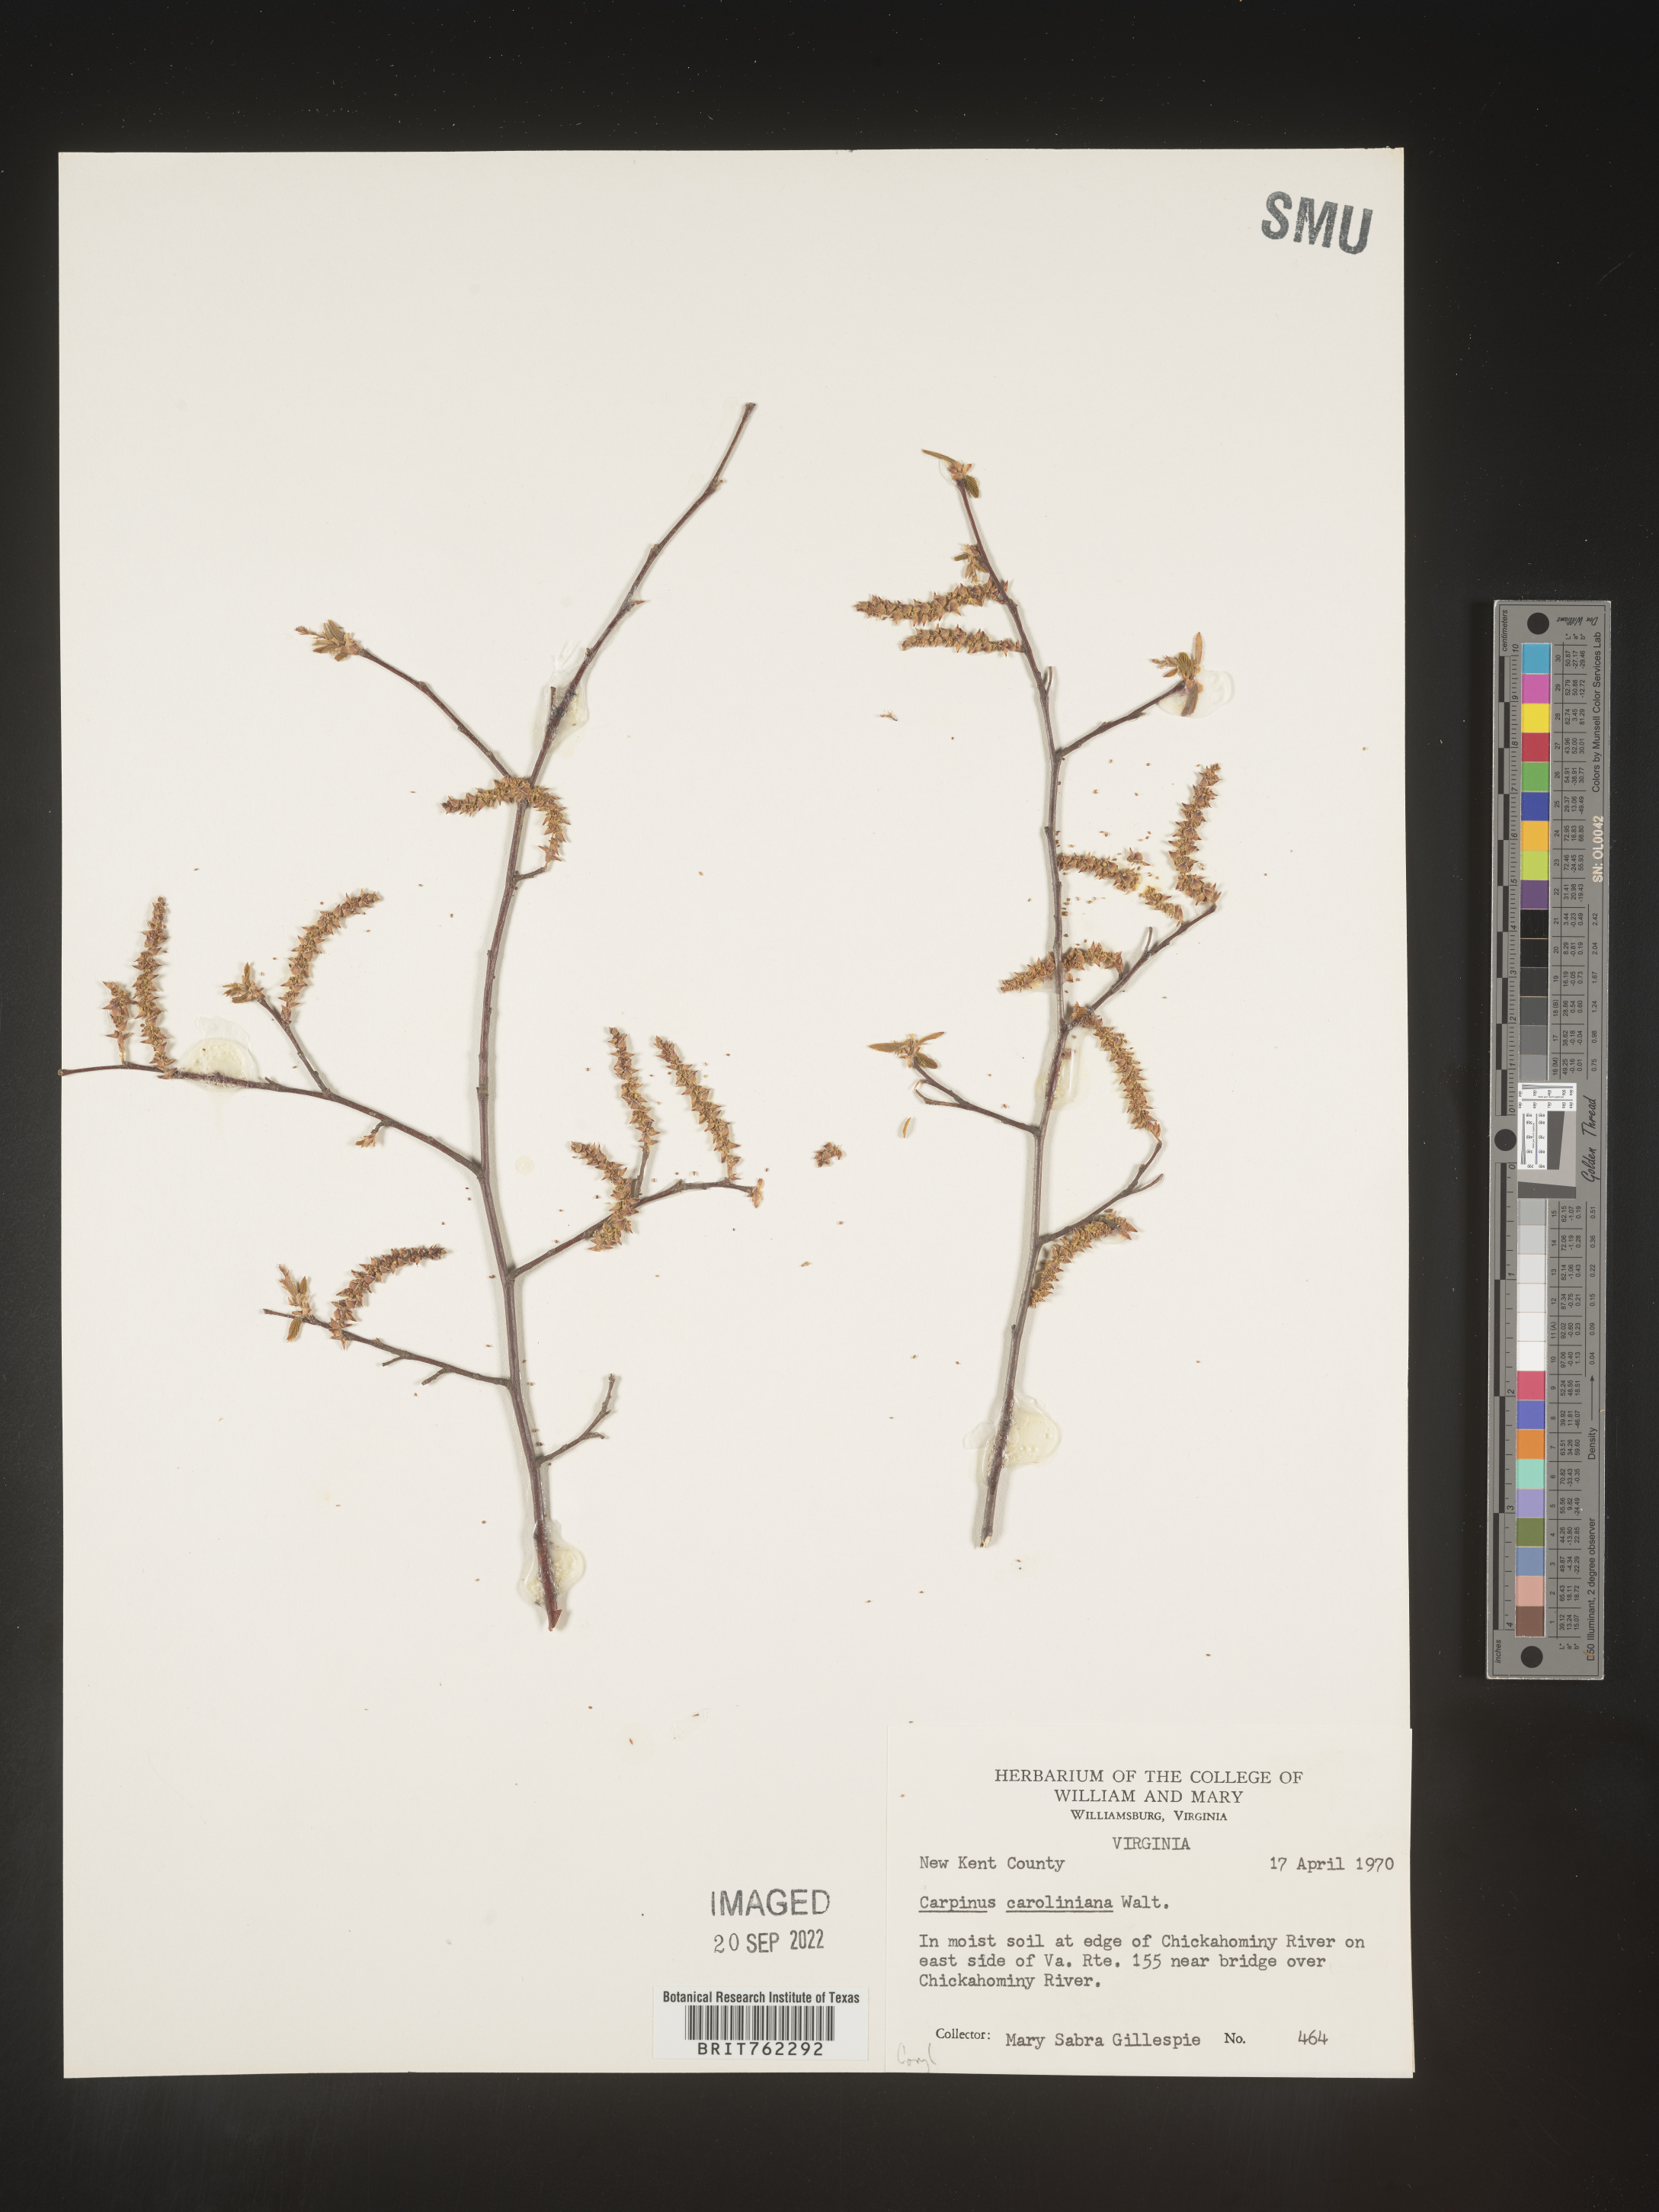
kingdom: Plantae
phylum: Tracheophyta
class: Magnoliopsida
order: Fagales
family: Betulaceae
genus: Carpinus
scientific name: Carpinus caroliniana
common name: American hornbeam
